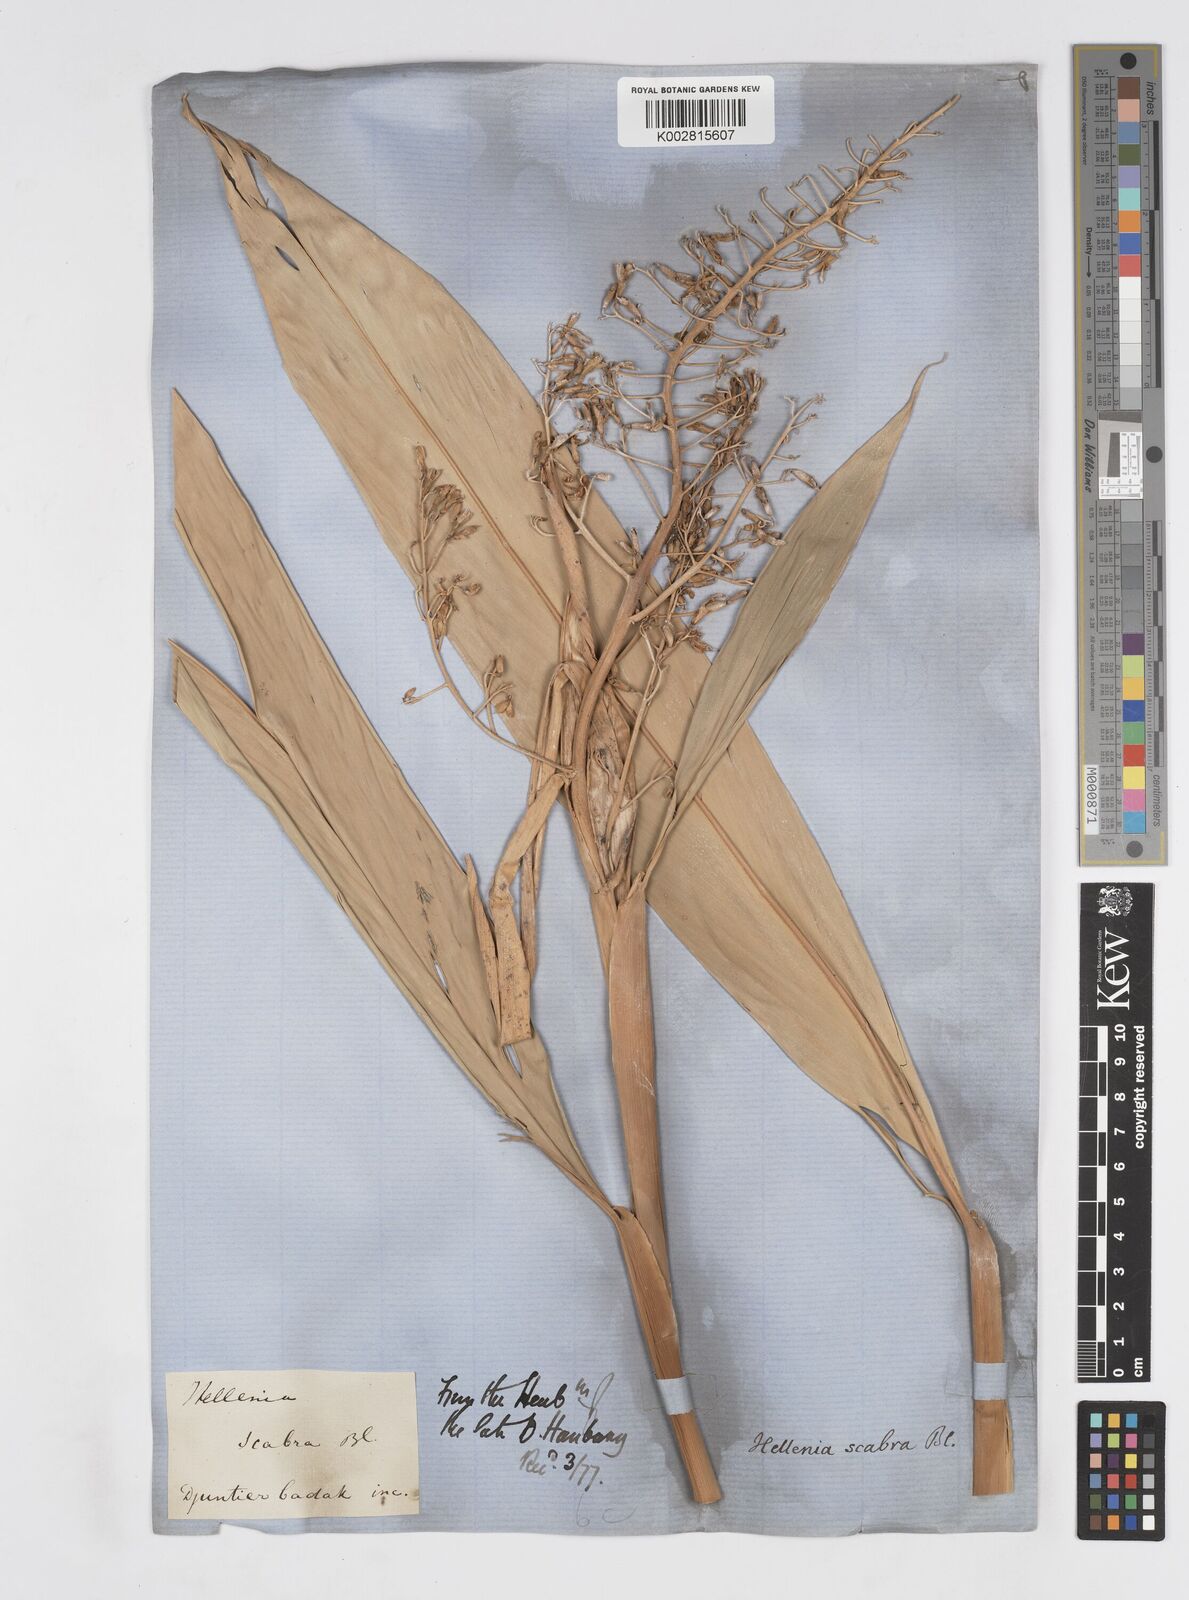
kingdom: Plantae
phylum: Tracheophyta
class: Liliopsida
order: Zingiberales
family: Zingiberaceae
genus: Alpinia
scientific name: Alpinia scabra
